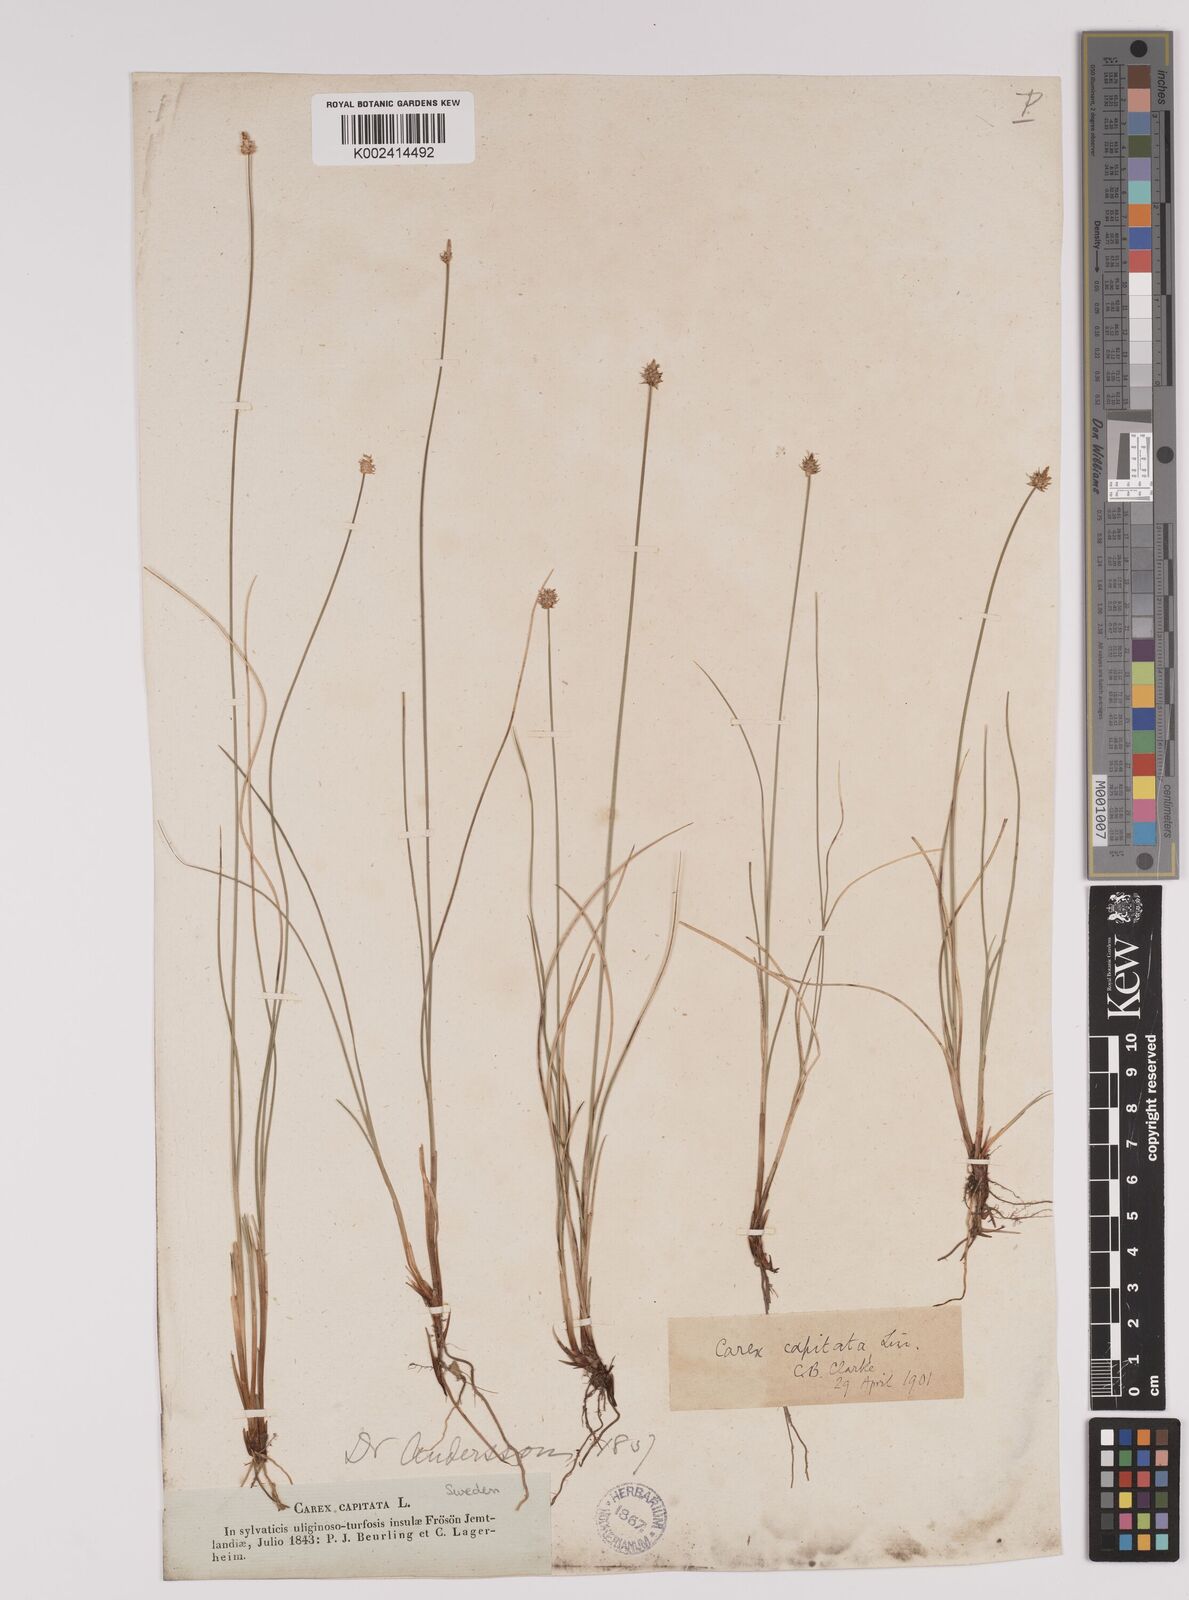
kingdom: Plantae
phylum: Tracheophyta
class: Liliopsida
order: Poales
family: Cyperaceae
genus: Carex
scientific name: Carex capitata
